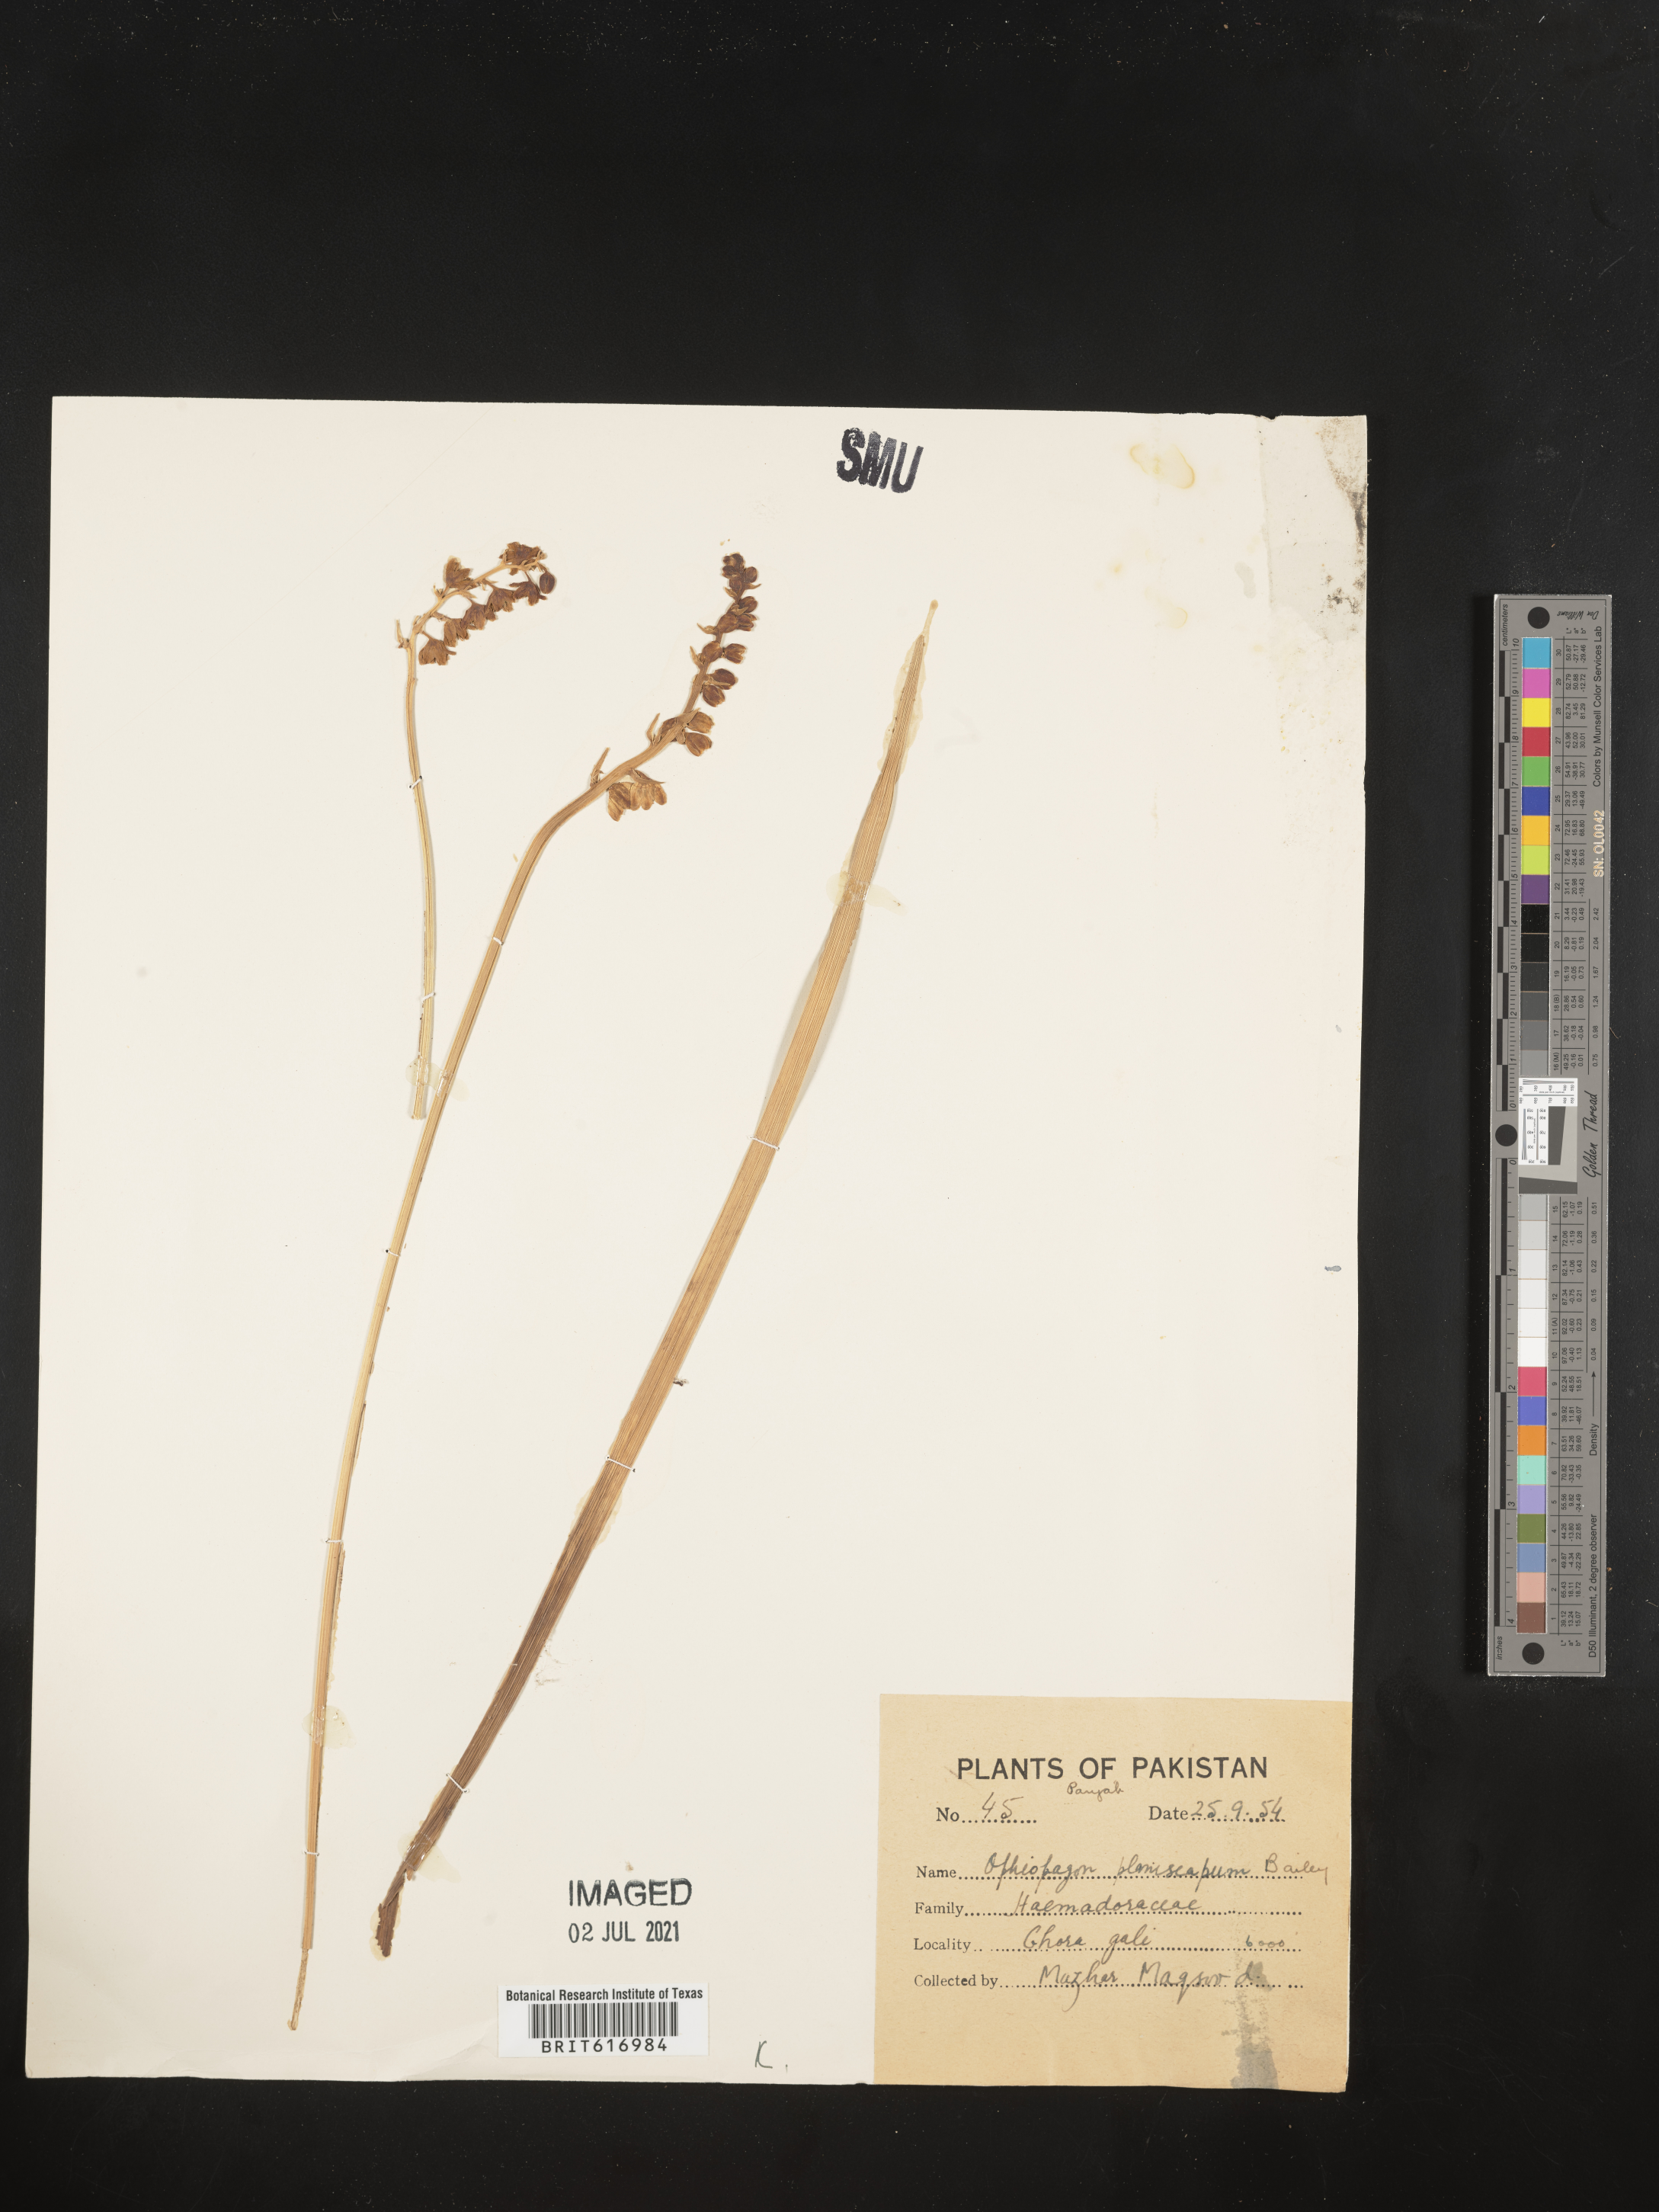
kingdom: Plantae
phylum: Tracheophyta
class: Liliopsida
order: Asparagales
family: Asparagaceae
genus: Ophiopogon
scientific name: Ophiopogon planiscapus
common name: Black mondo
